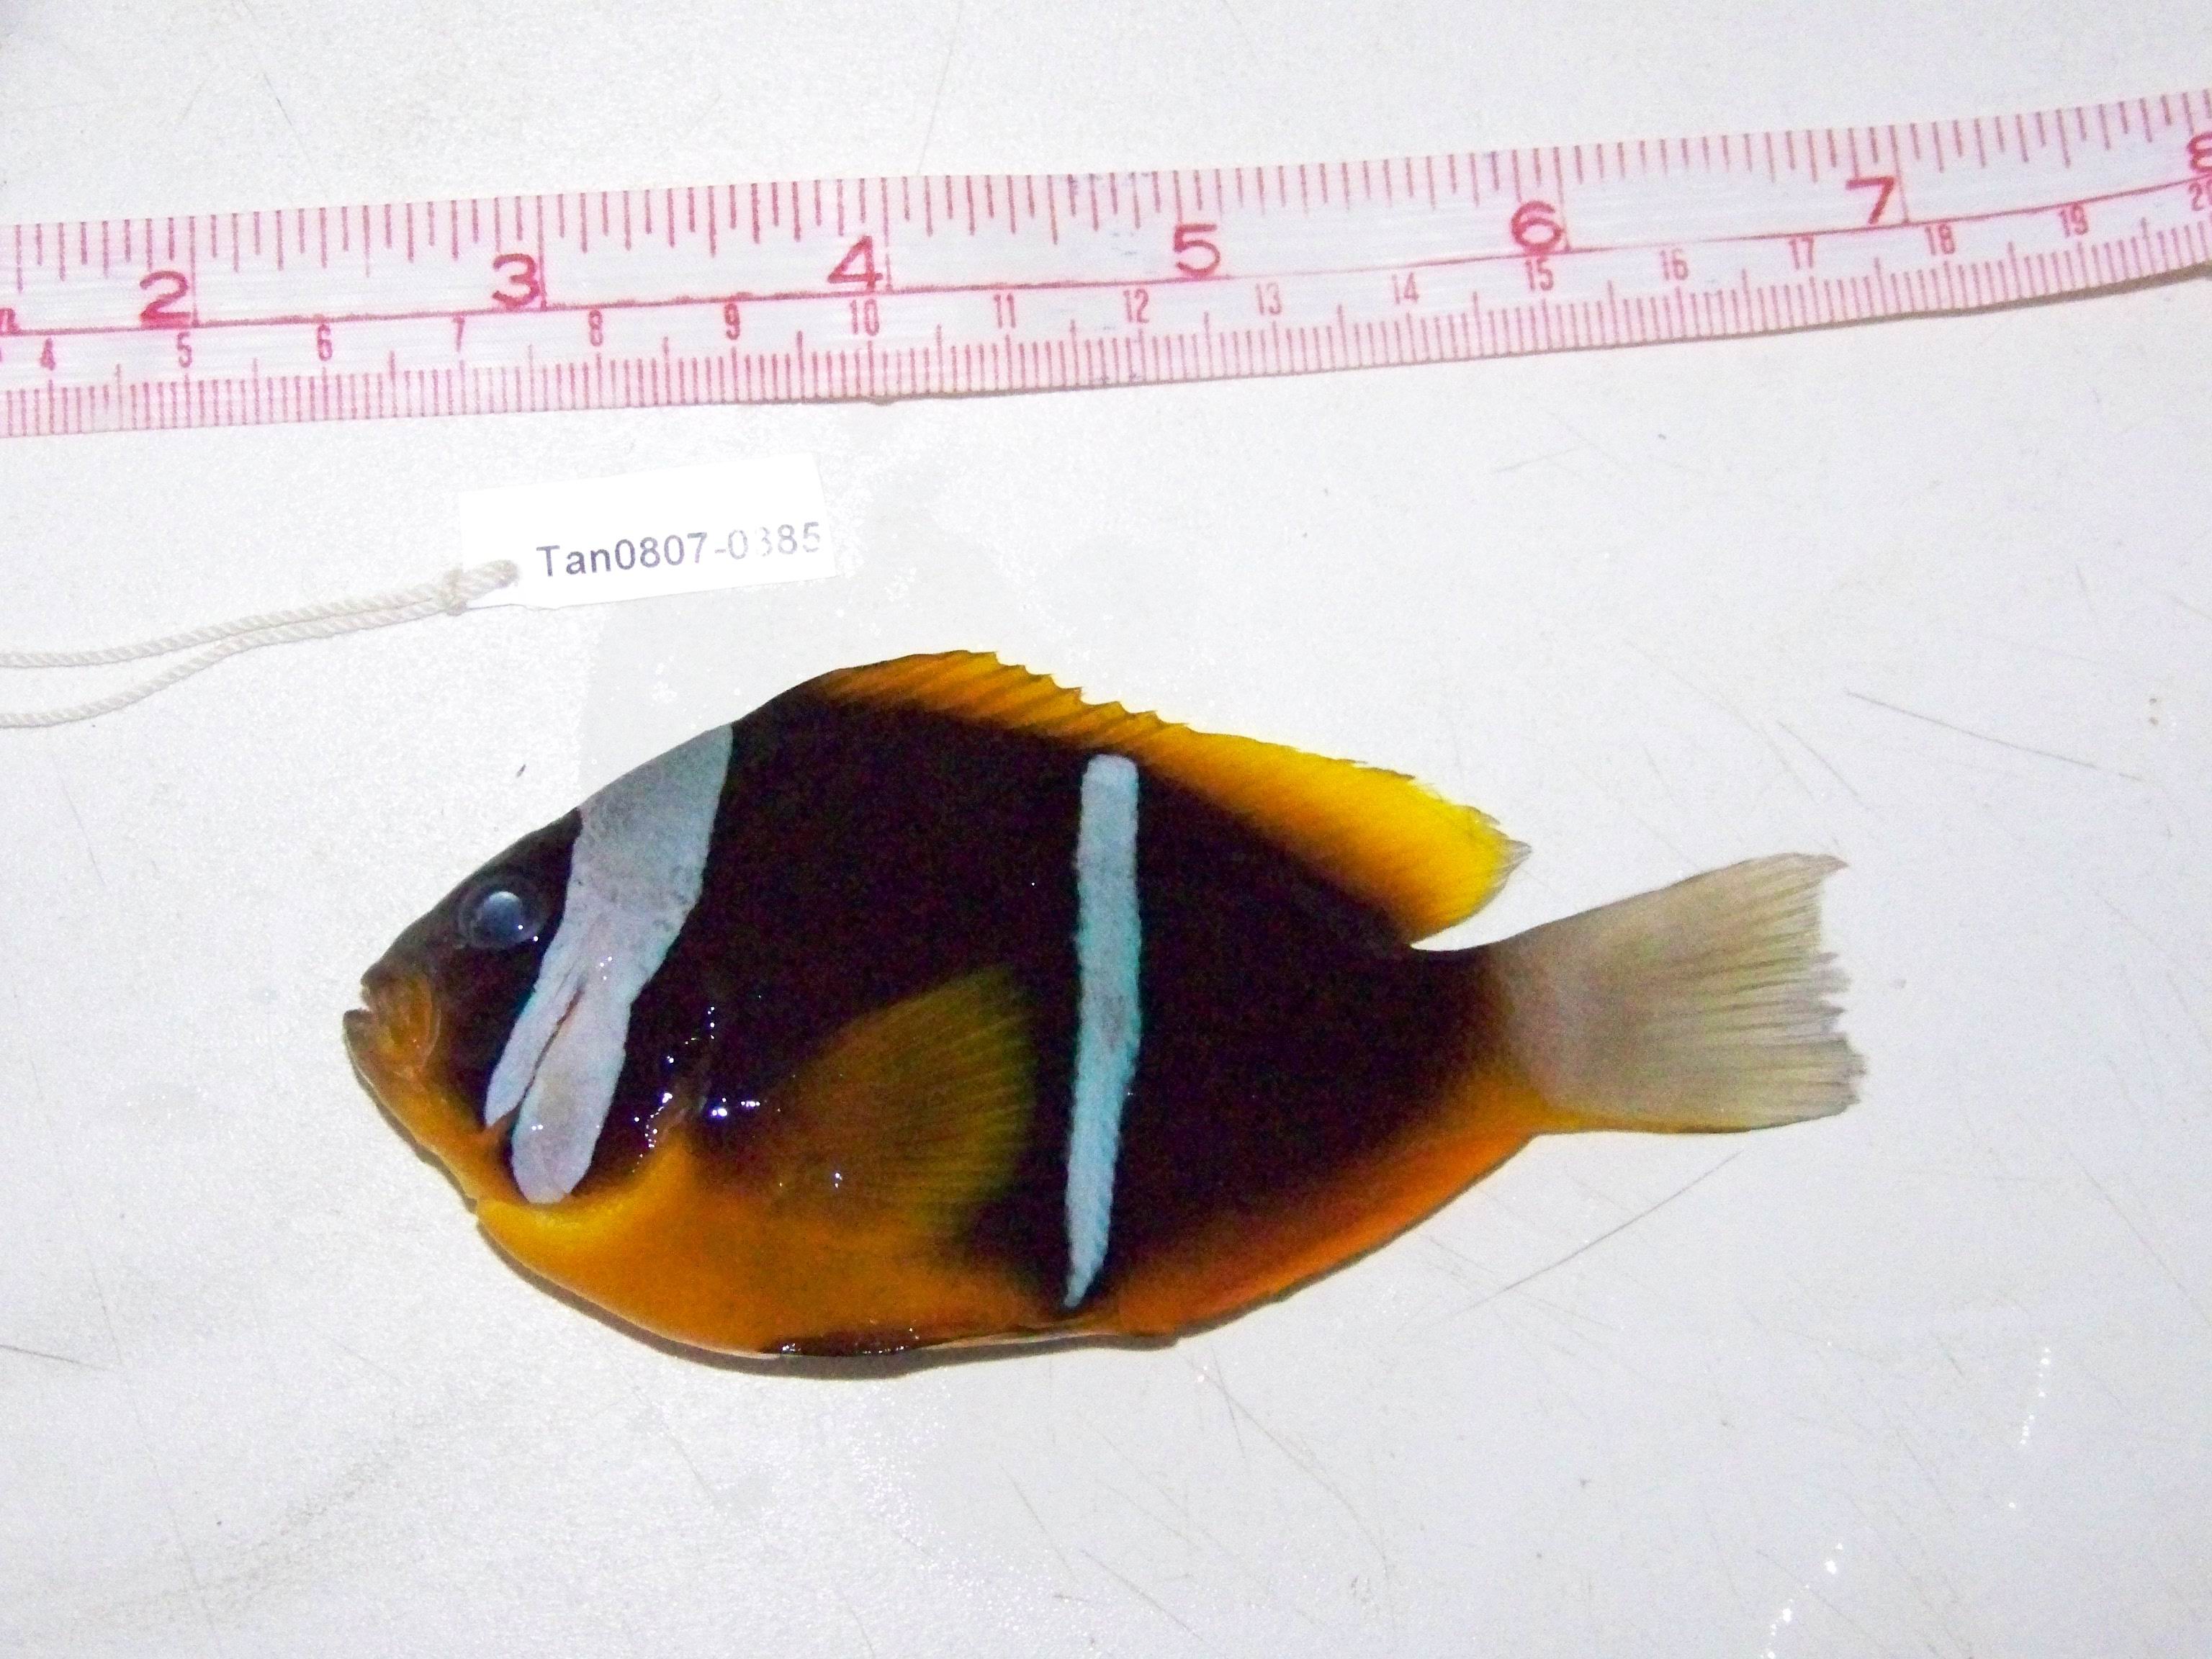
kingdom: Animalia
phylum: Chordata
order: Perciformes
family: Pomacentridae
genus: Amphiprion
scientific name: Amphiprion chrysopterus
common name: Orange-fin anemonefish
